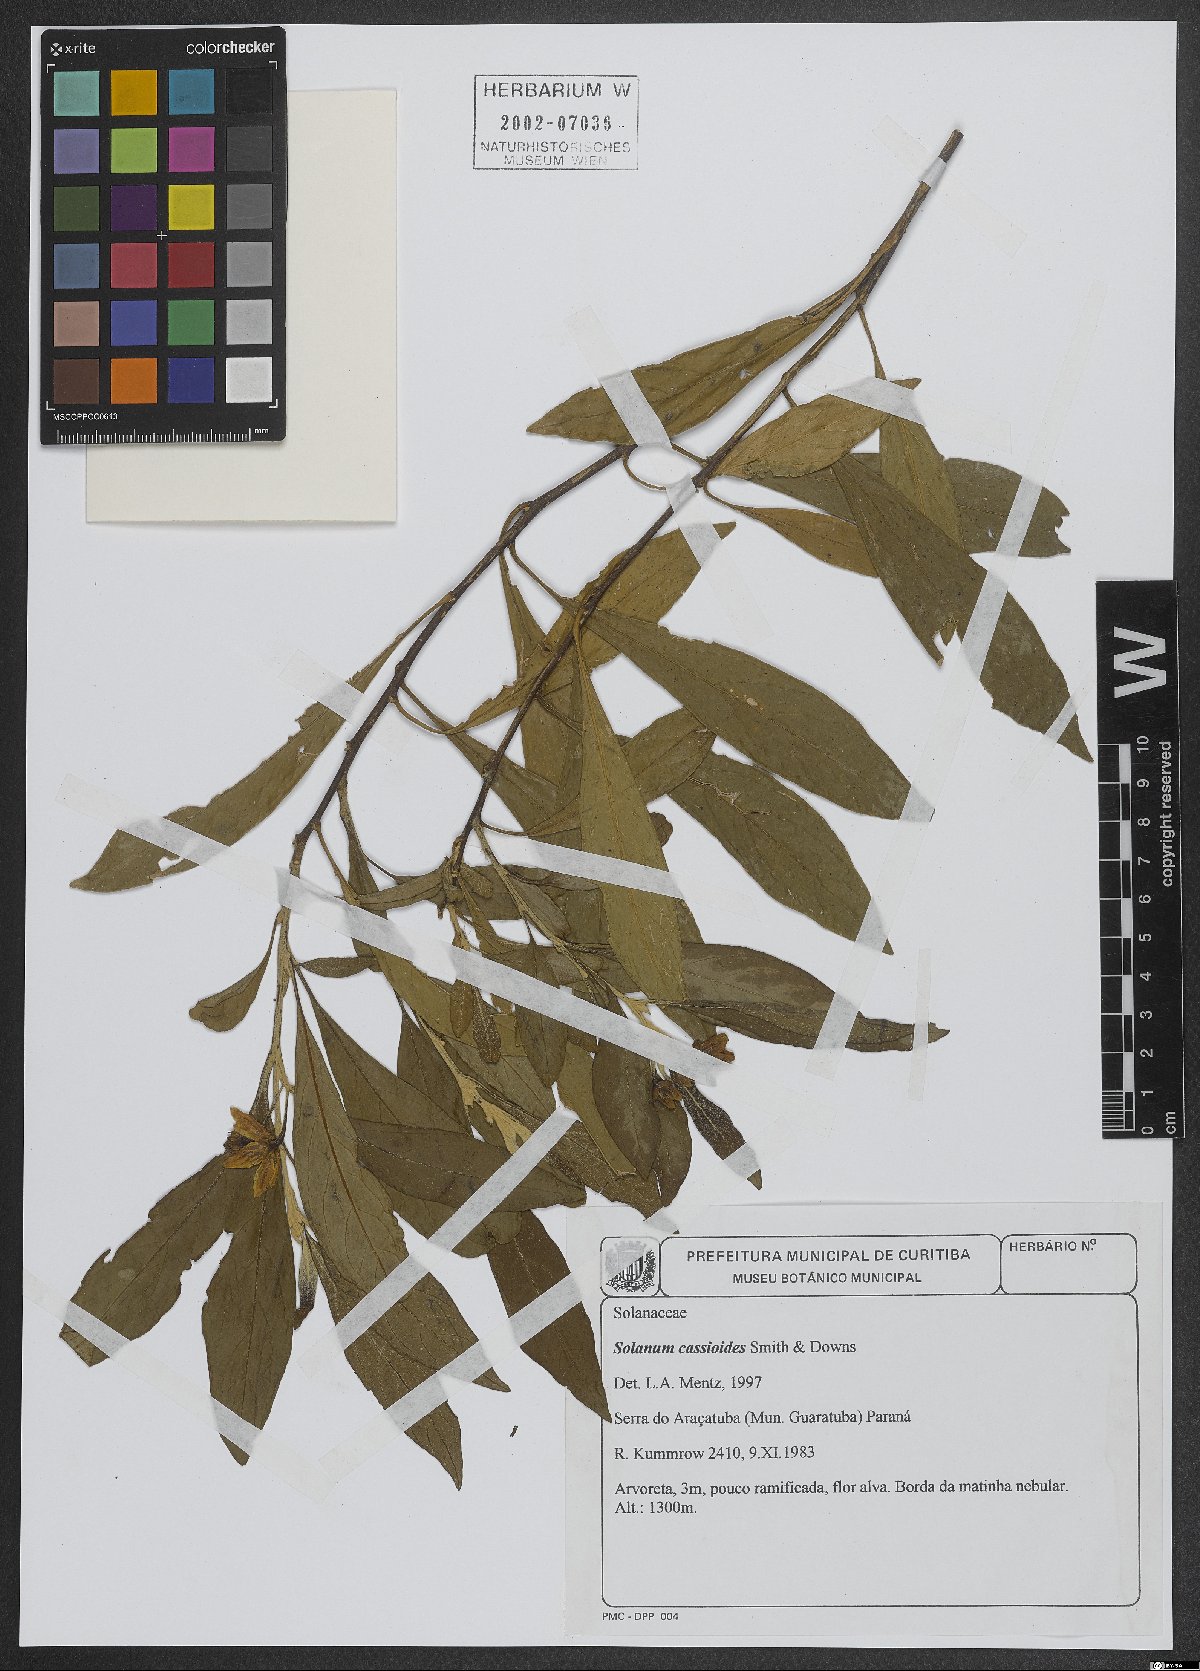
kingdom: Plantae
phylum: Tracheophyta
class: Magnoliopsida
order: Solanales
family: Solanaceae
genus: Solanum
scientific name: Solanum cassioides
